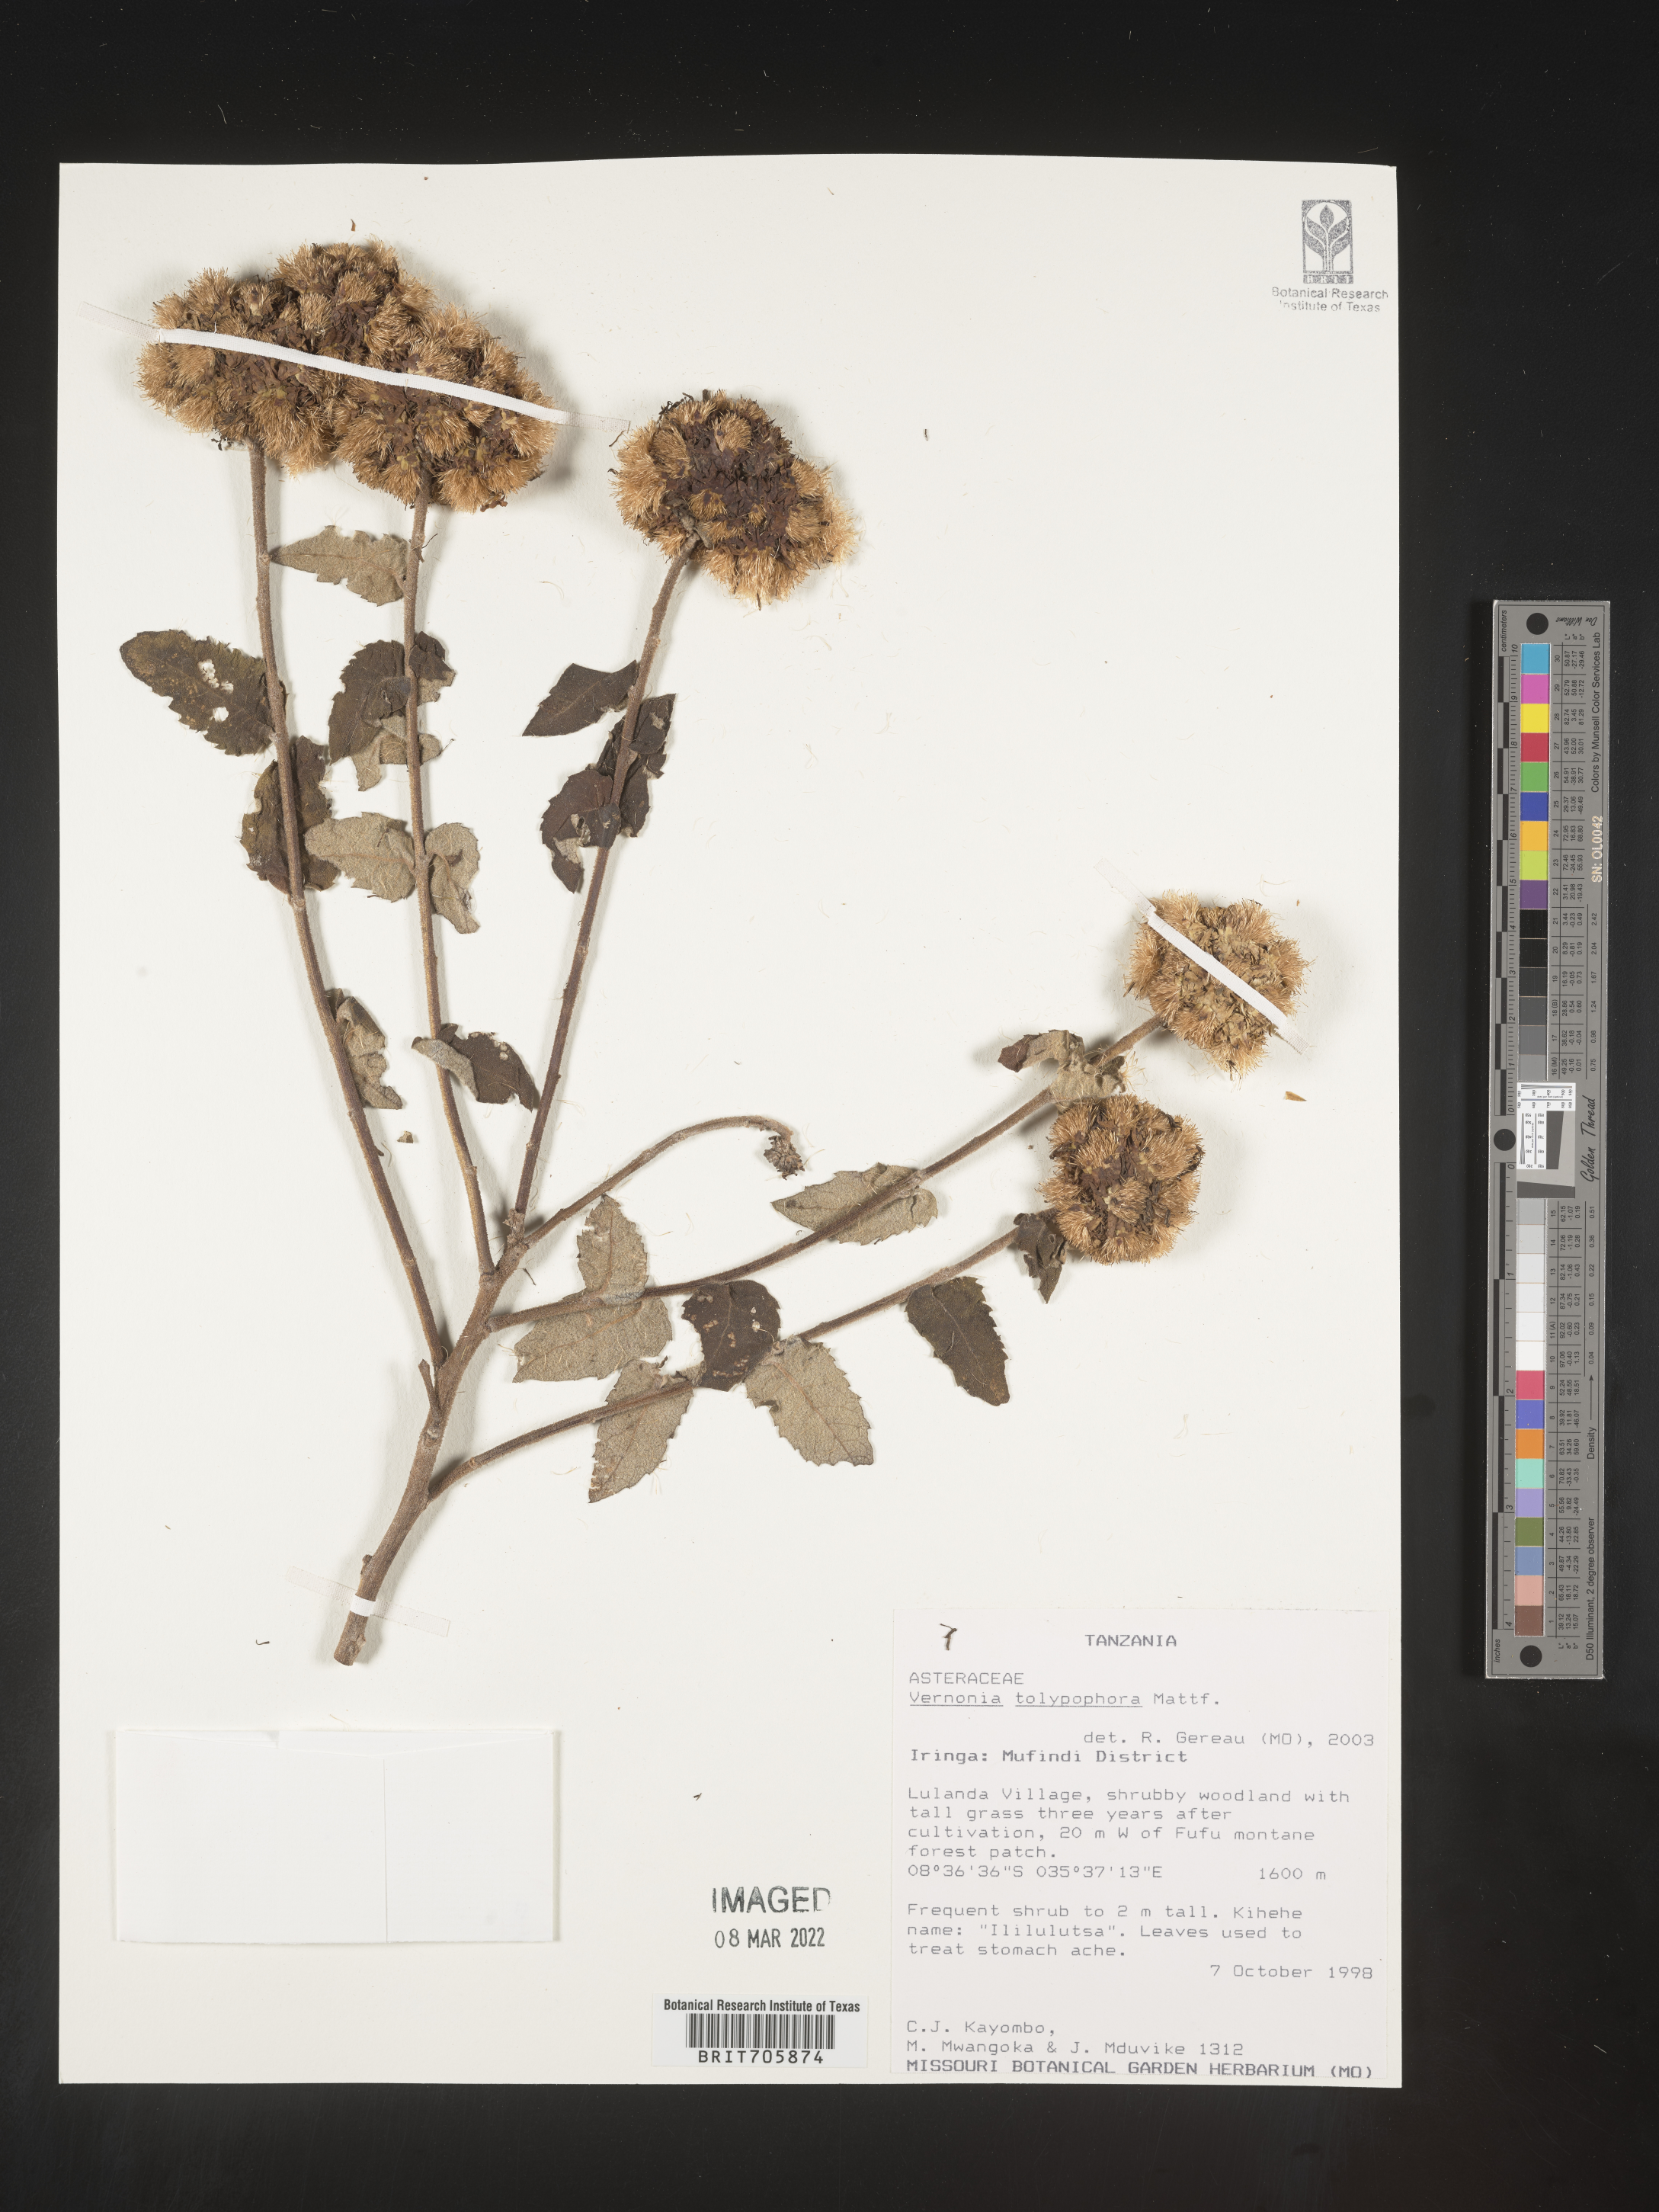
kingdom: Plantae
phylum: Tracheophyta
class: Magnoliopsida
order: Asterales
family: Asteraceae
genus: Vernonia
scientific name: Vernonia
